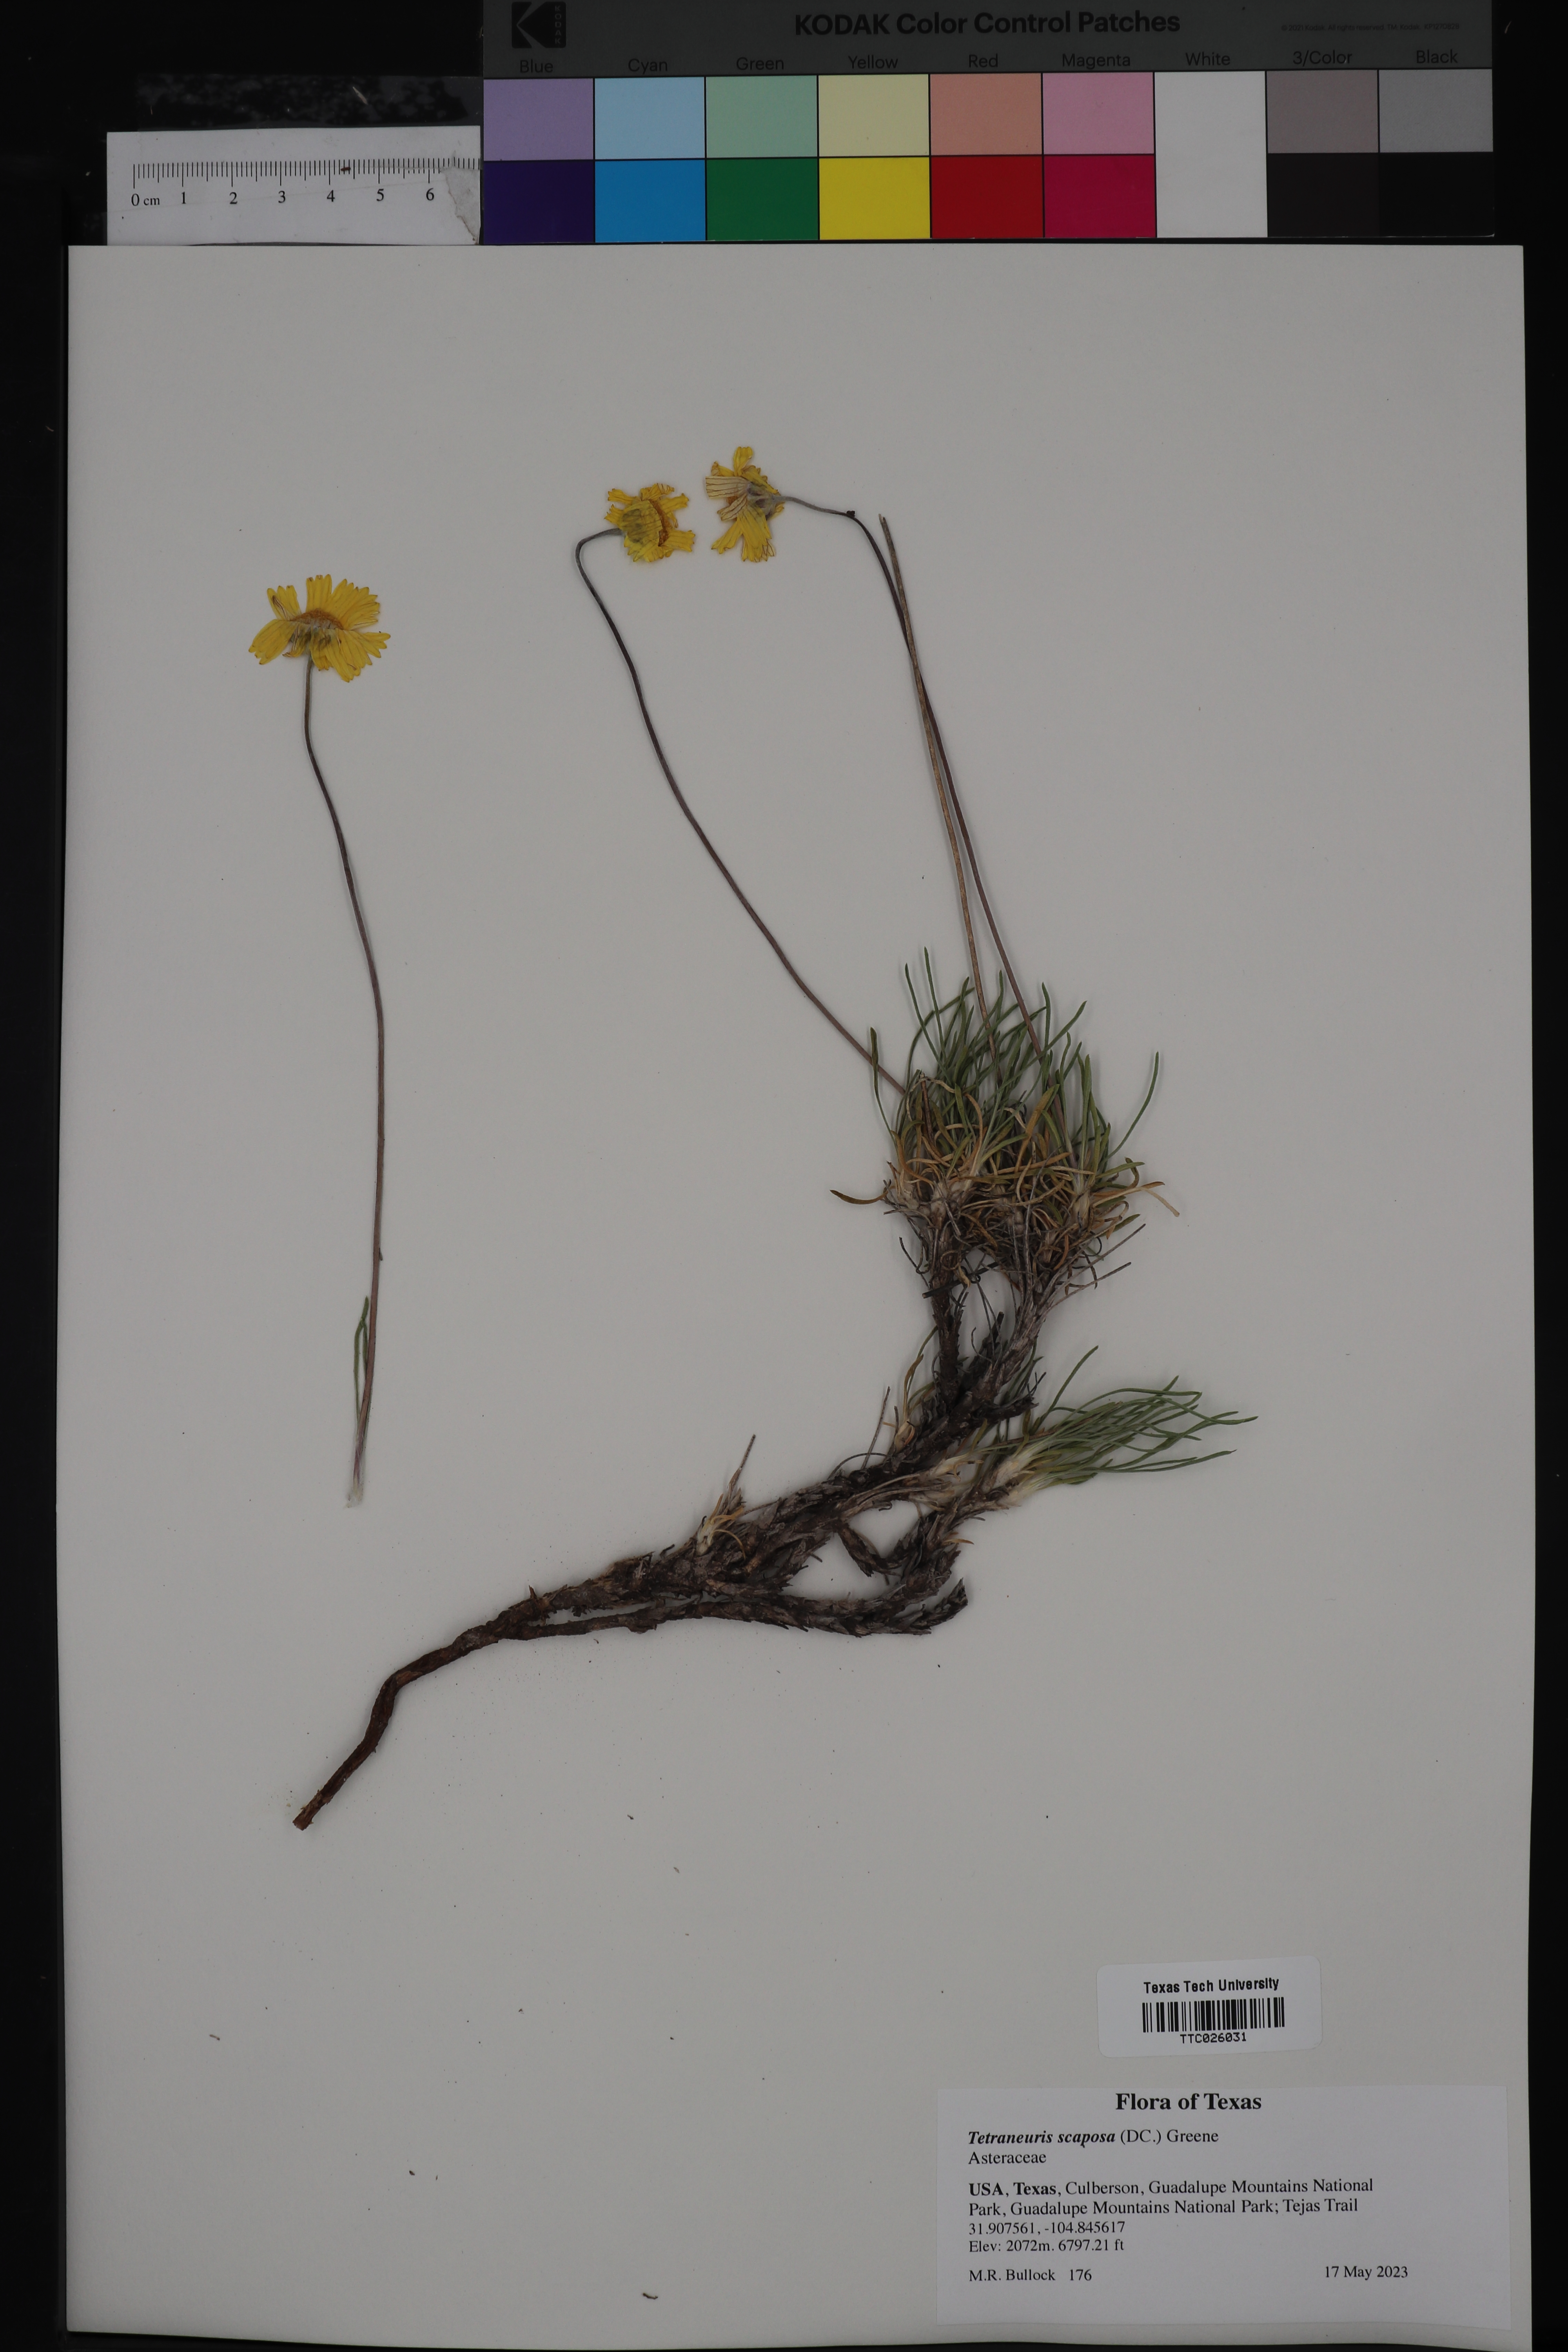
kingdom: Plantae
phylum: Tracheophyta
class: Magnoliopsida
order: Asterales
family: Asteraceae
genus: Tetraneuris
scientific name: Tetraneuris scaposa
